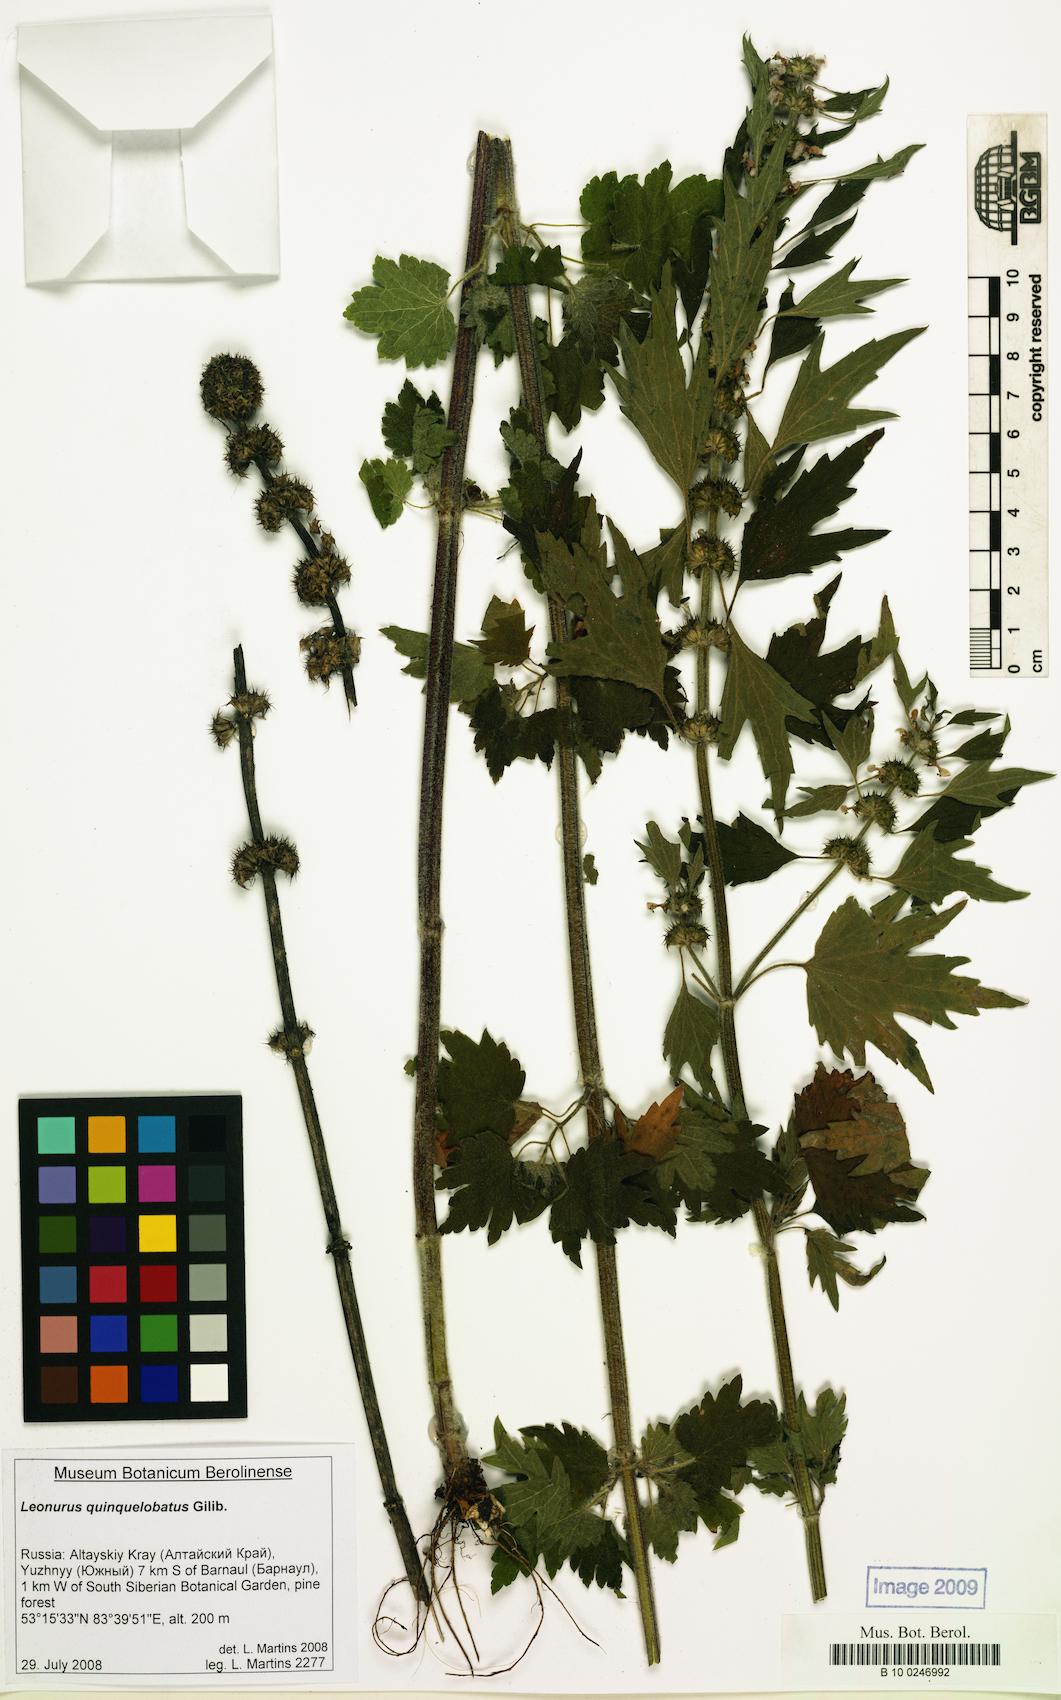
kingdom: Plantae
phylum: Tracheophyta
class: Magnoliopsida
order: Lamiales
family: Lamiaceae
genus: Leonurus
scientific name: Leonurus quinquelobatus
